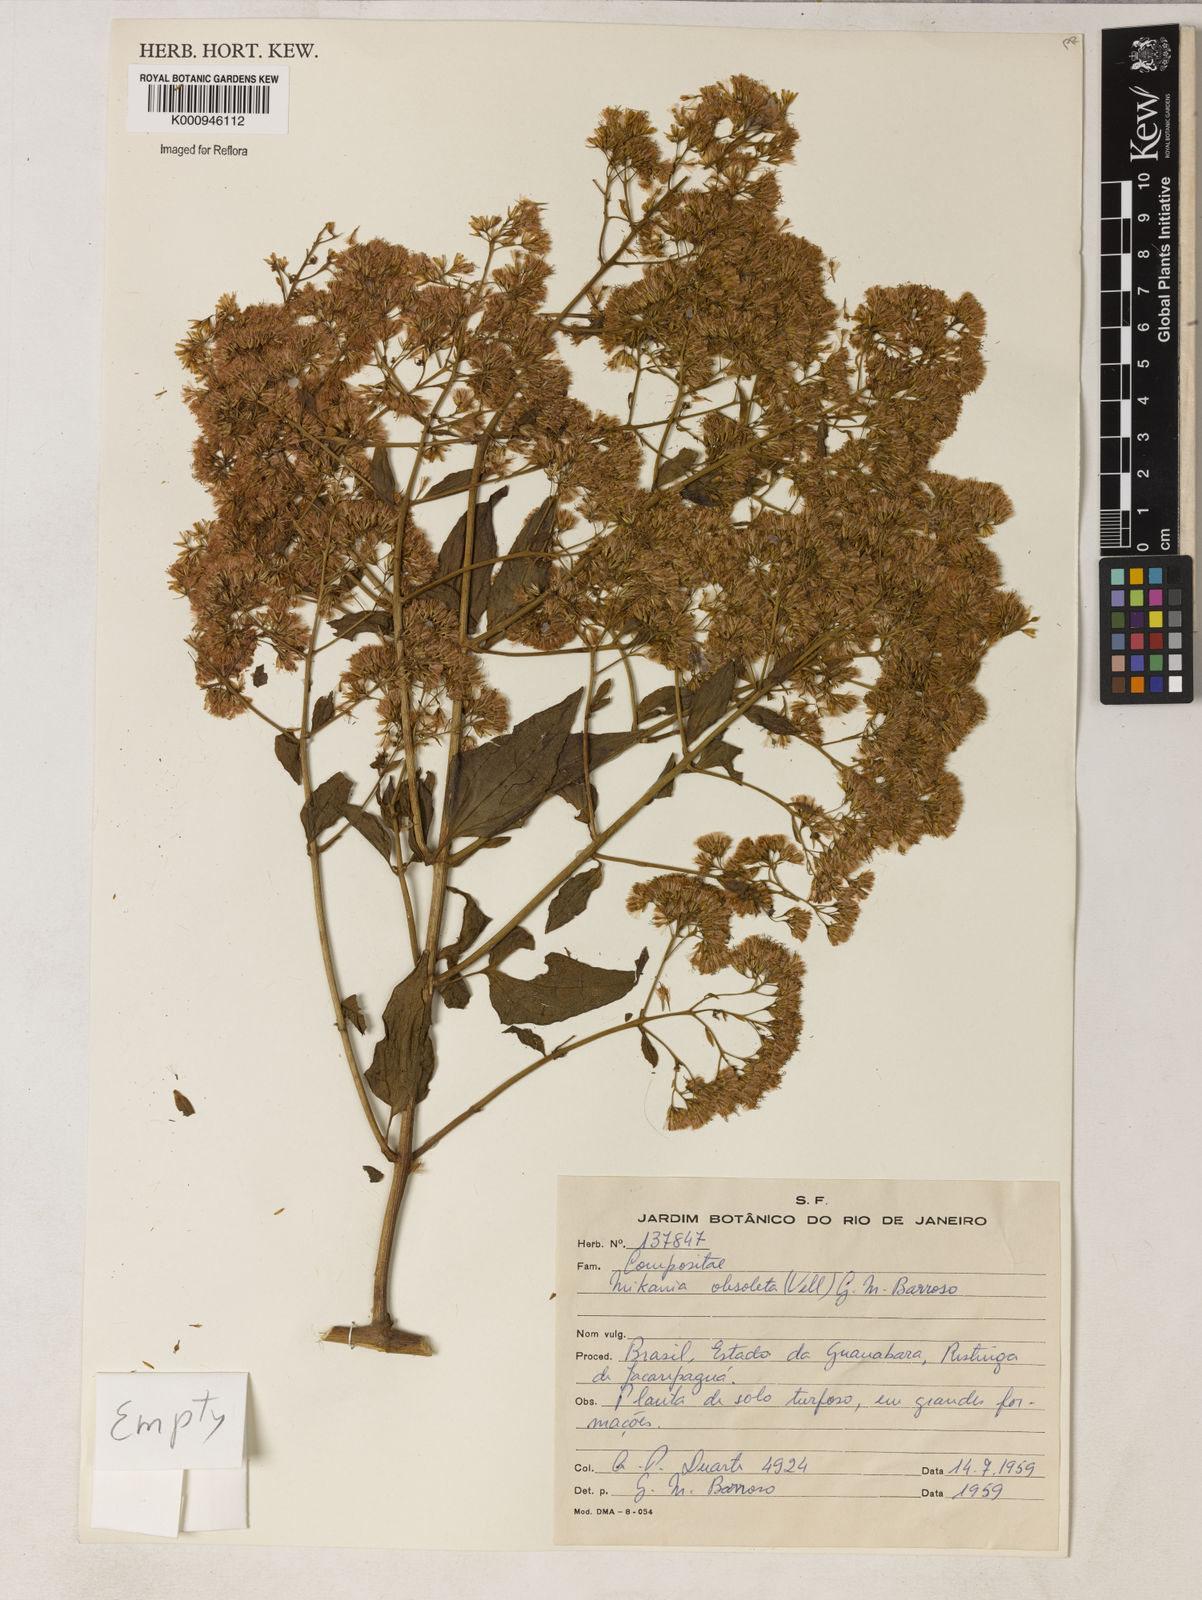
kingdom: Plantae
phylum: Tracheophyta
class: Magnoliopsida
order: Asterales
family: Asteraceae
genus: Mikania
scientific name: Mikania obsoleta
